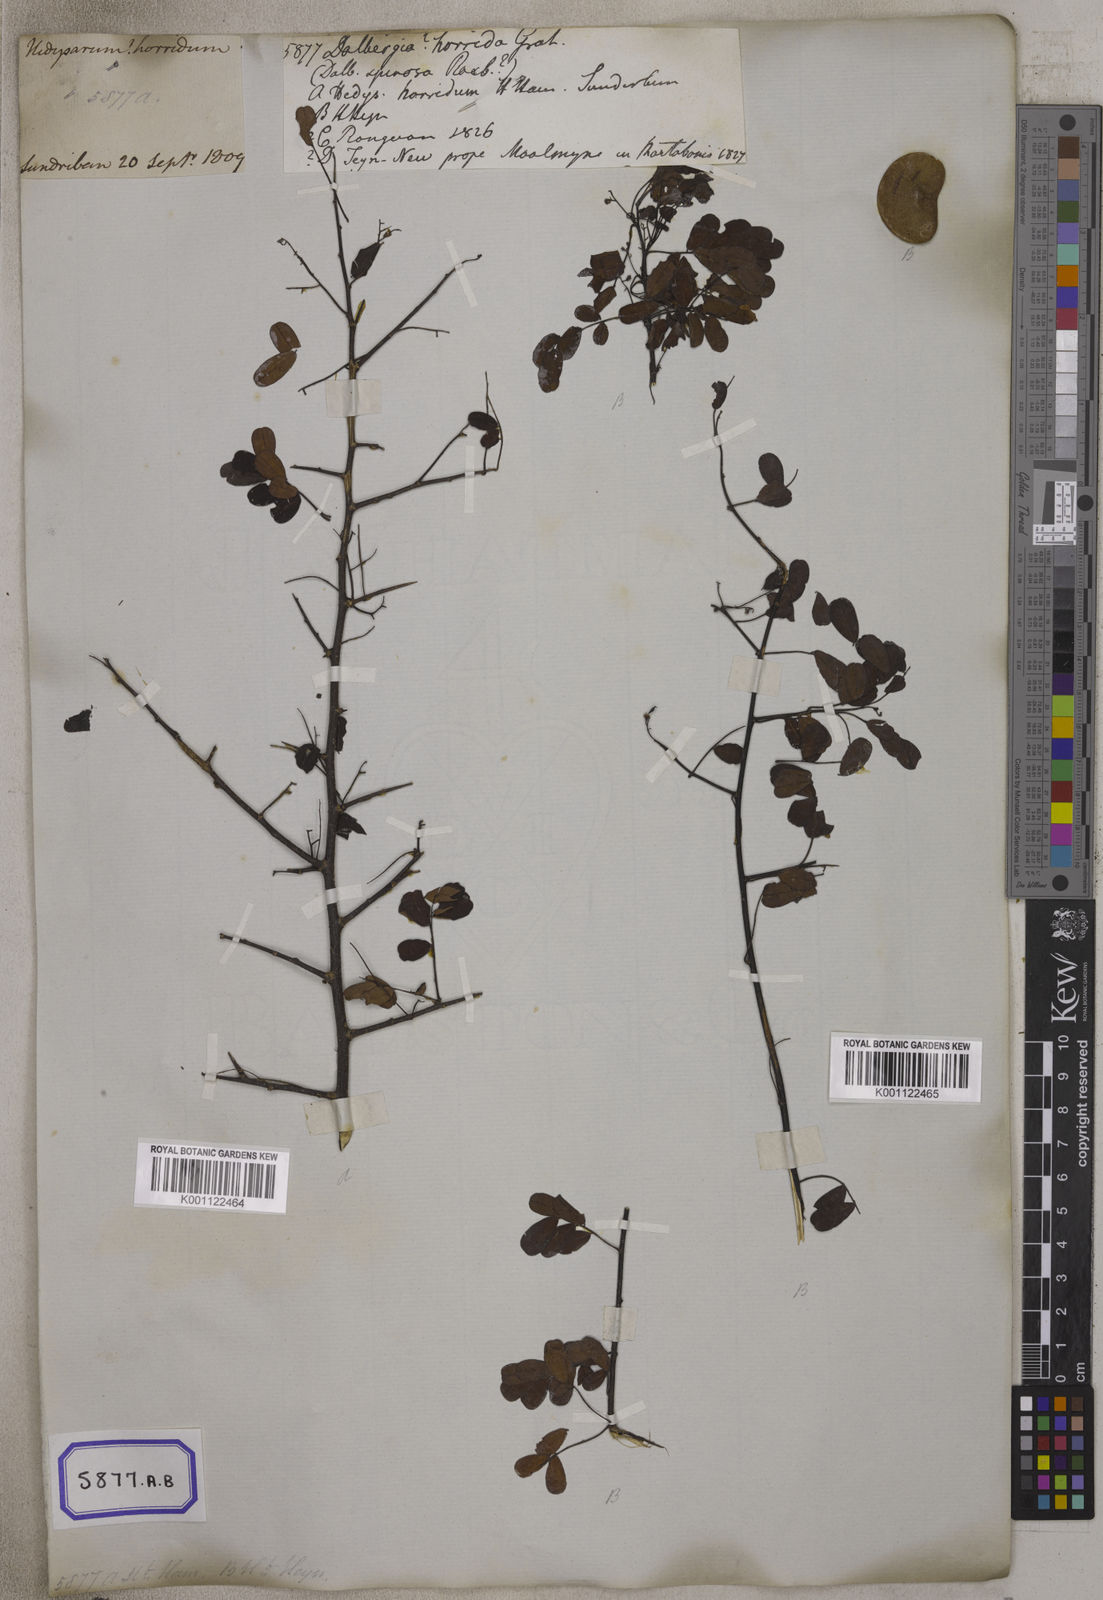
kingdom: Plantae
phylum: Tracheophyta
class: Magnoliopsida
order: Fabales
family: Fabaceae
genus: Dalbergia
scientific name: Dalbergia
